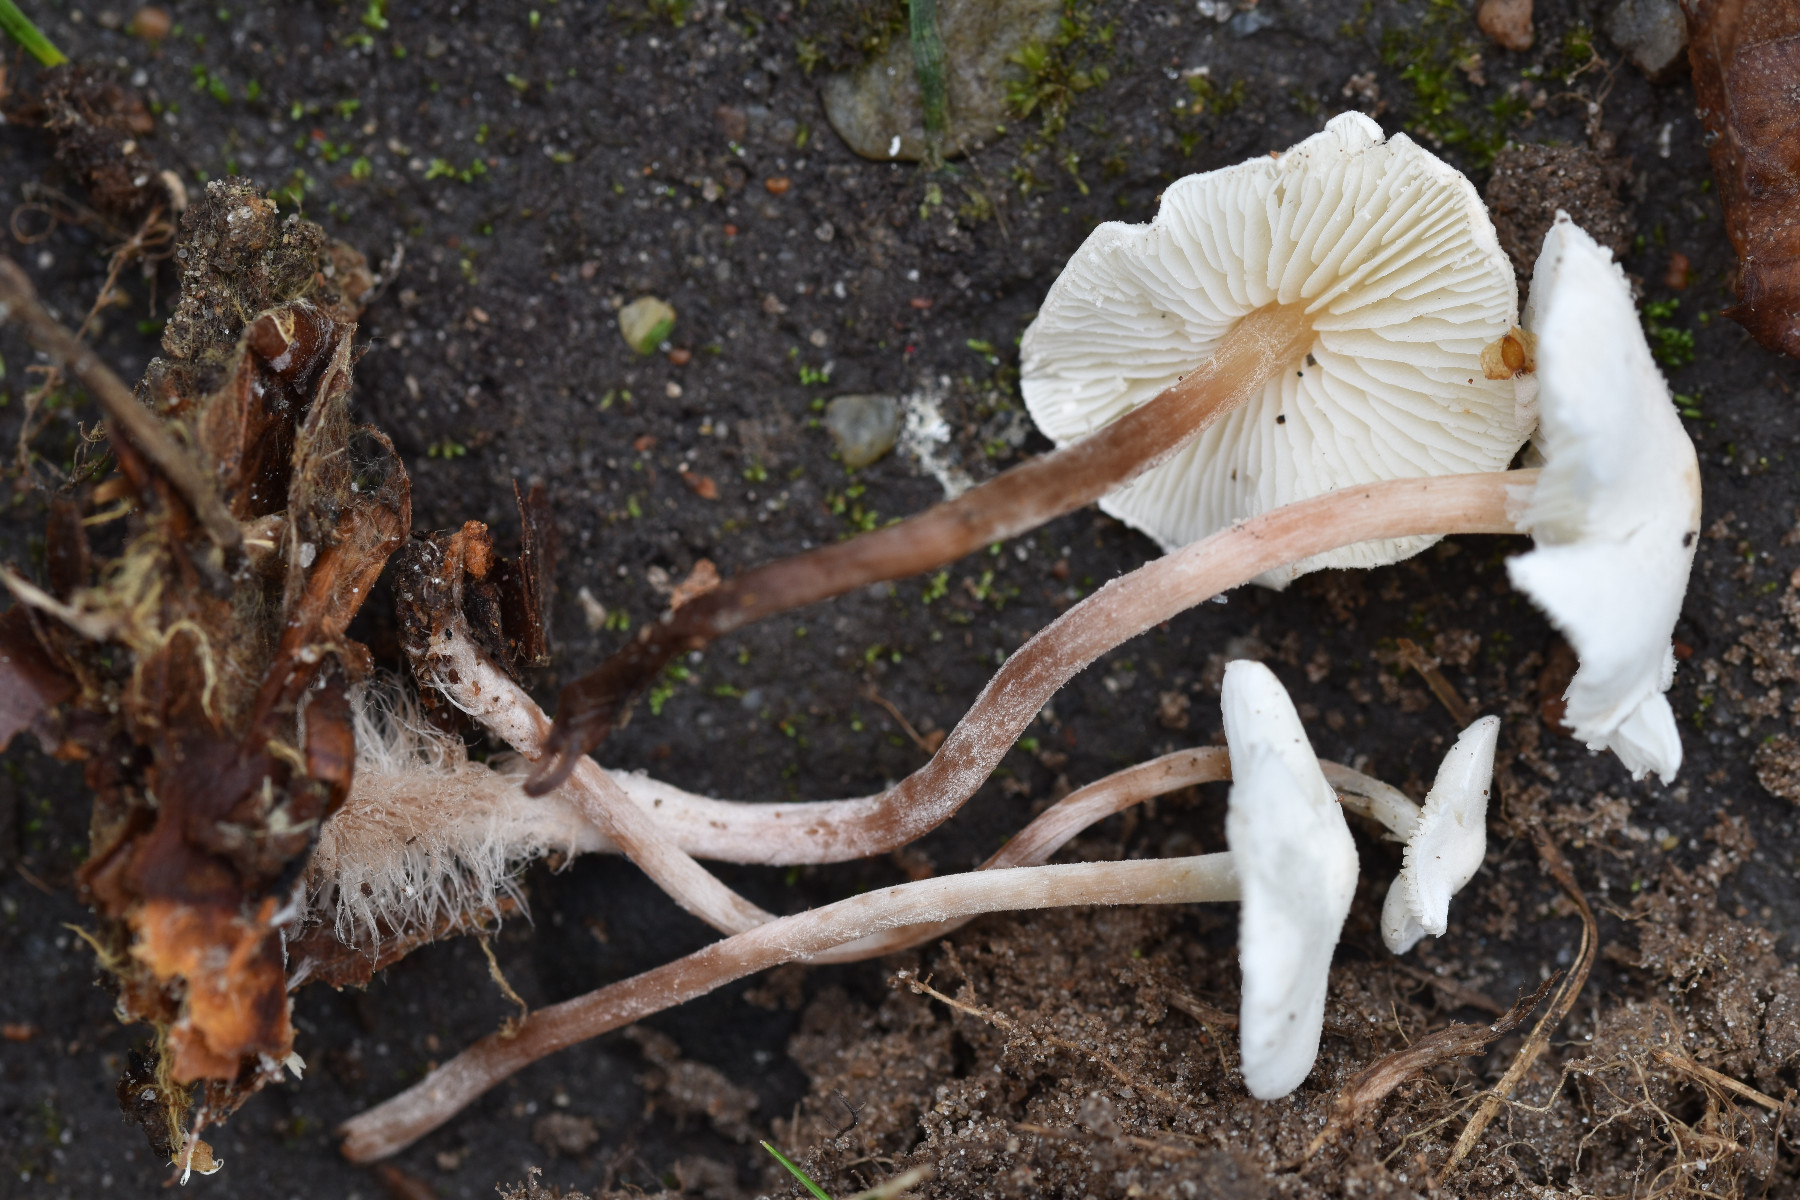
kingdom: Fungi
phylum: Basidiomycota
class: Agaricomycetes
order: Agaricales
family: Agaricaceae
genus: Cystolepiota
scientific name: Cystolepiota seminuda
